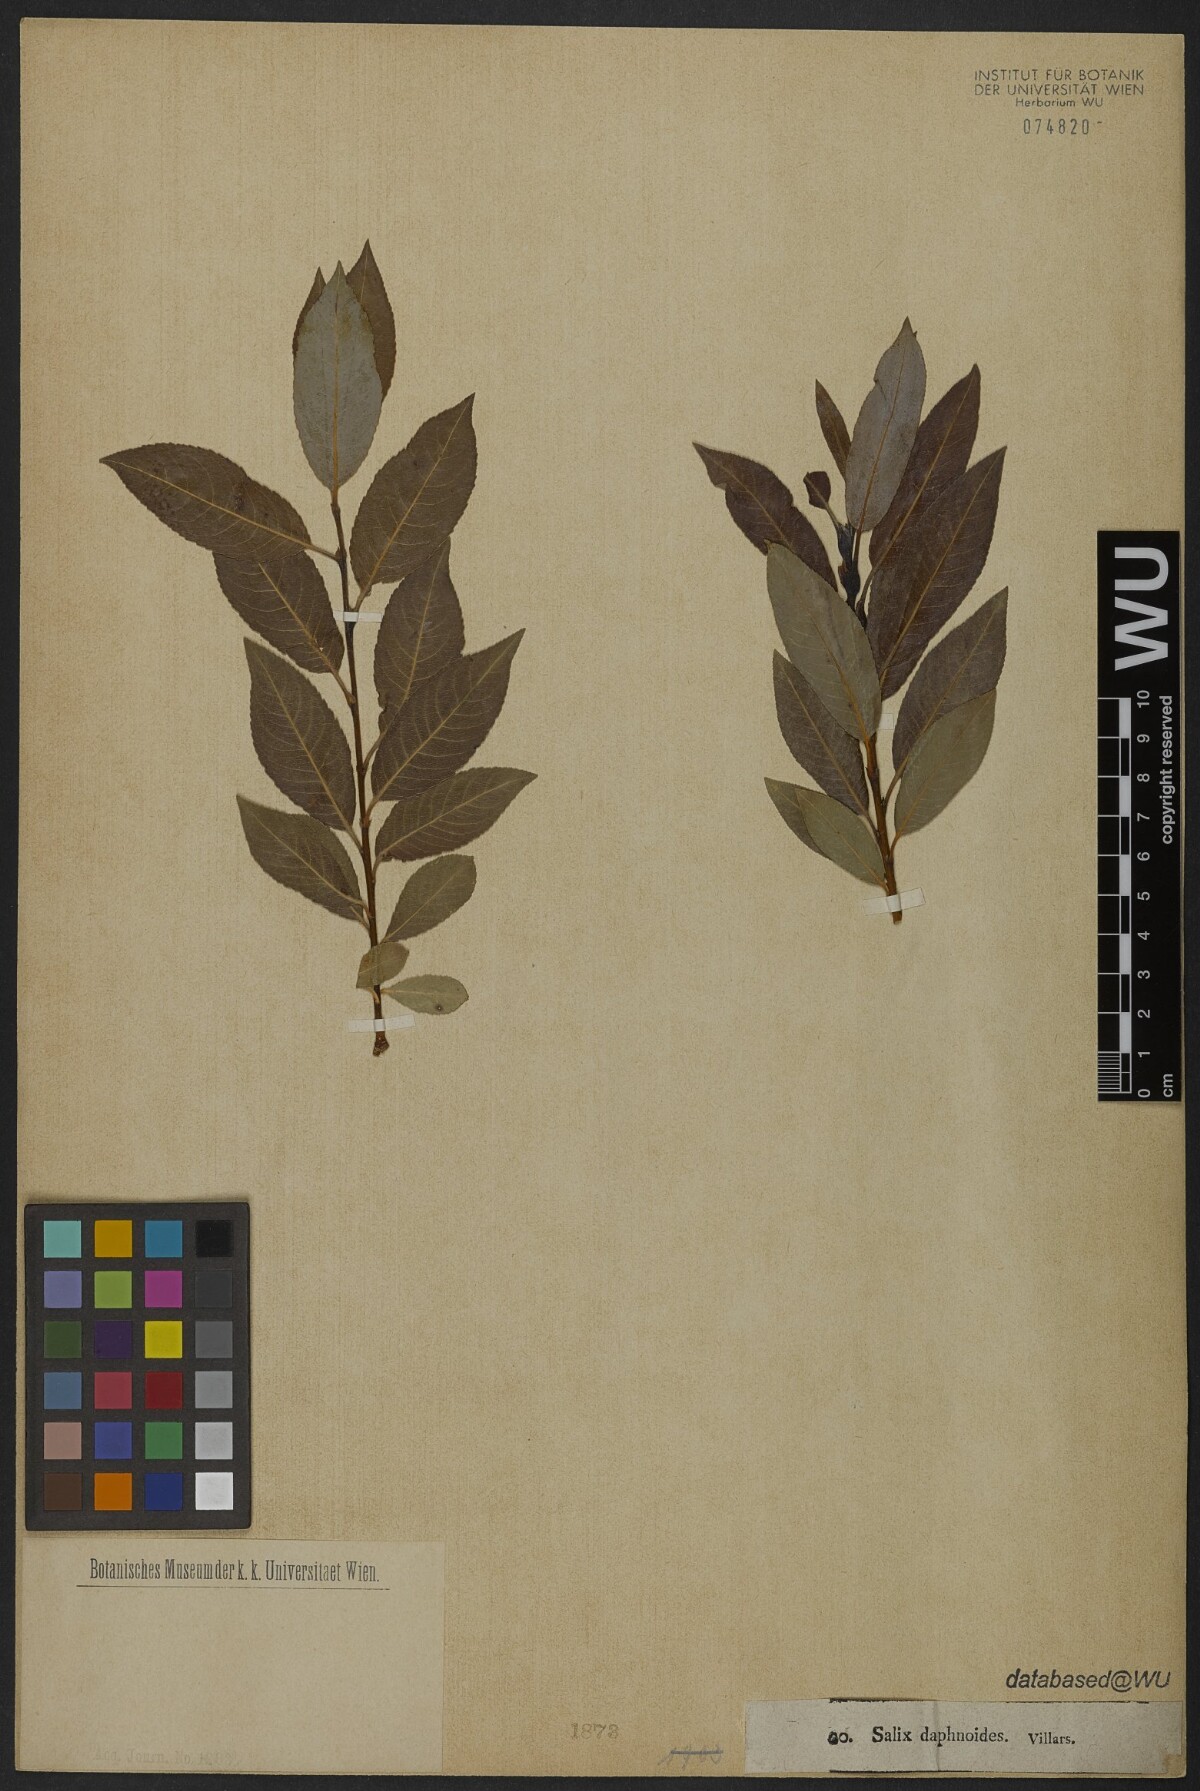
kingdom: Plantae
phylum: Tracheophyta
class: Magnoliopsida
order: Malpighiales
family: Salicaceae
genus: Salix
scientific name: Salix daphnoides
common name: European violet-willow
